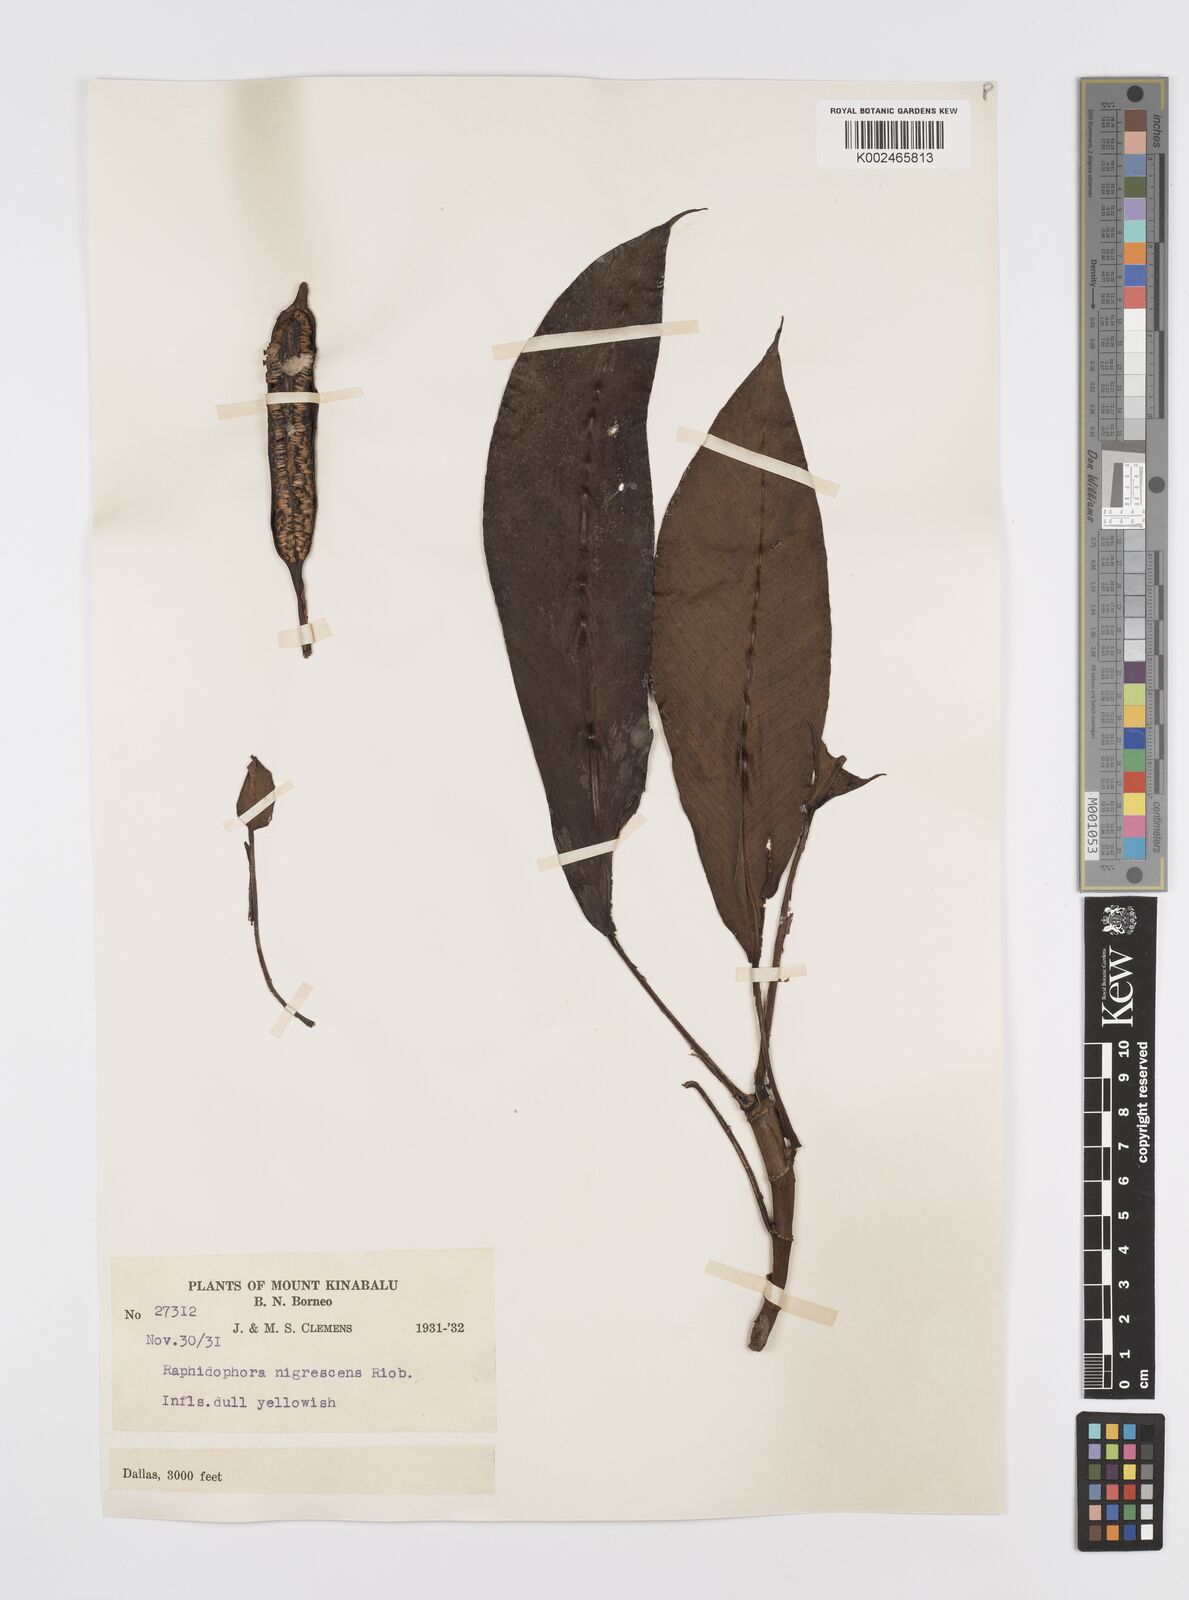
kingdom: Plantae
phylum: Tracheophyta
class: Liliopsida
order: Alismatales
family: Araceae
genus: Rhaphidophora
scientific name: Rhaphidophora sylvestris
